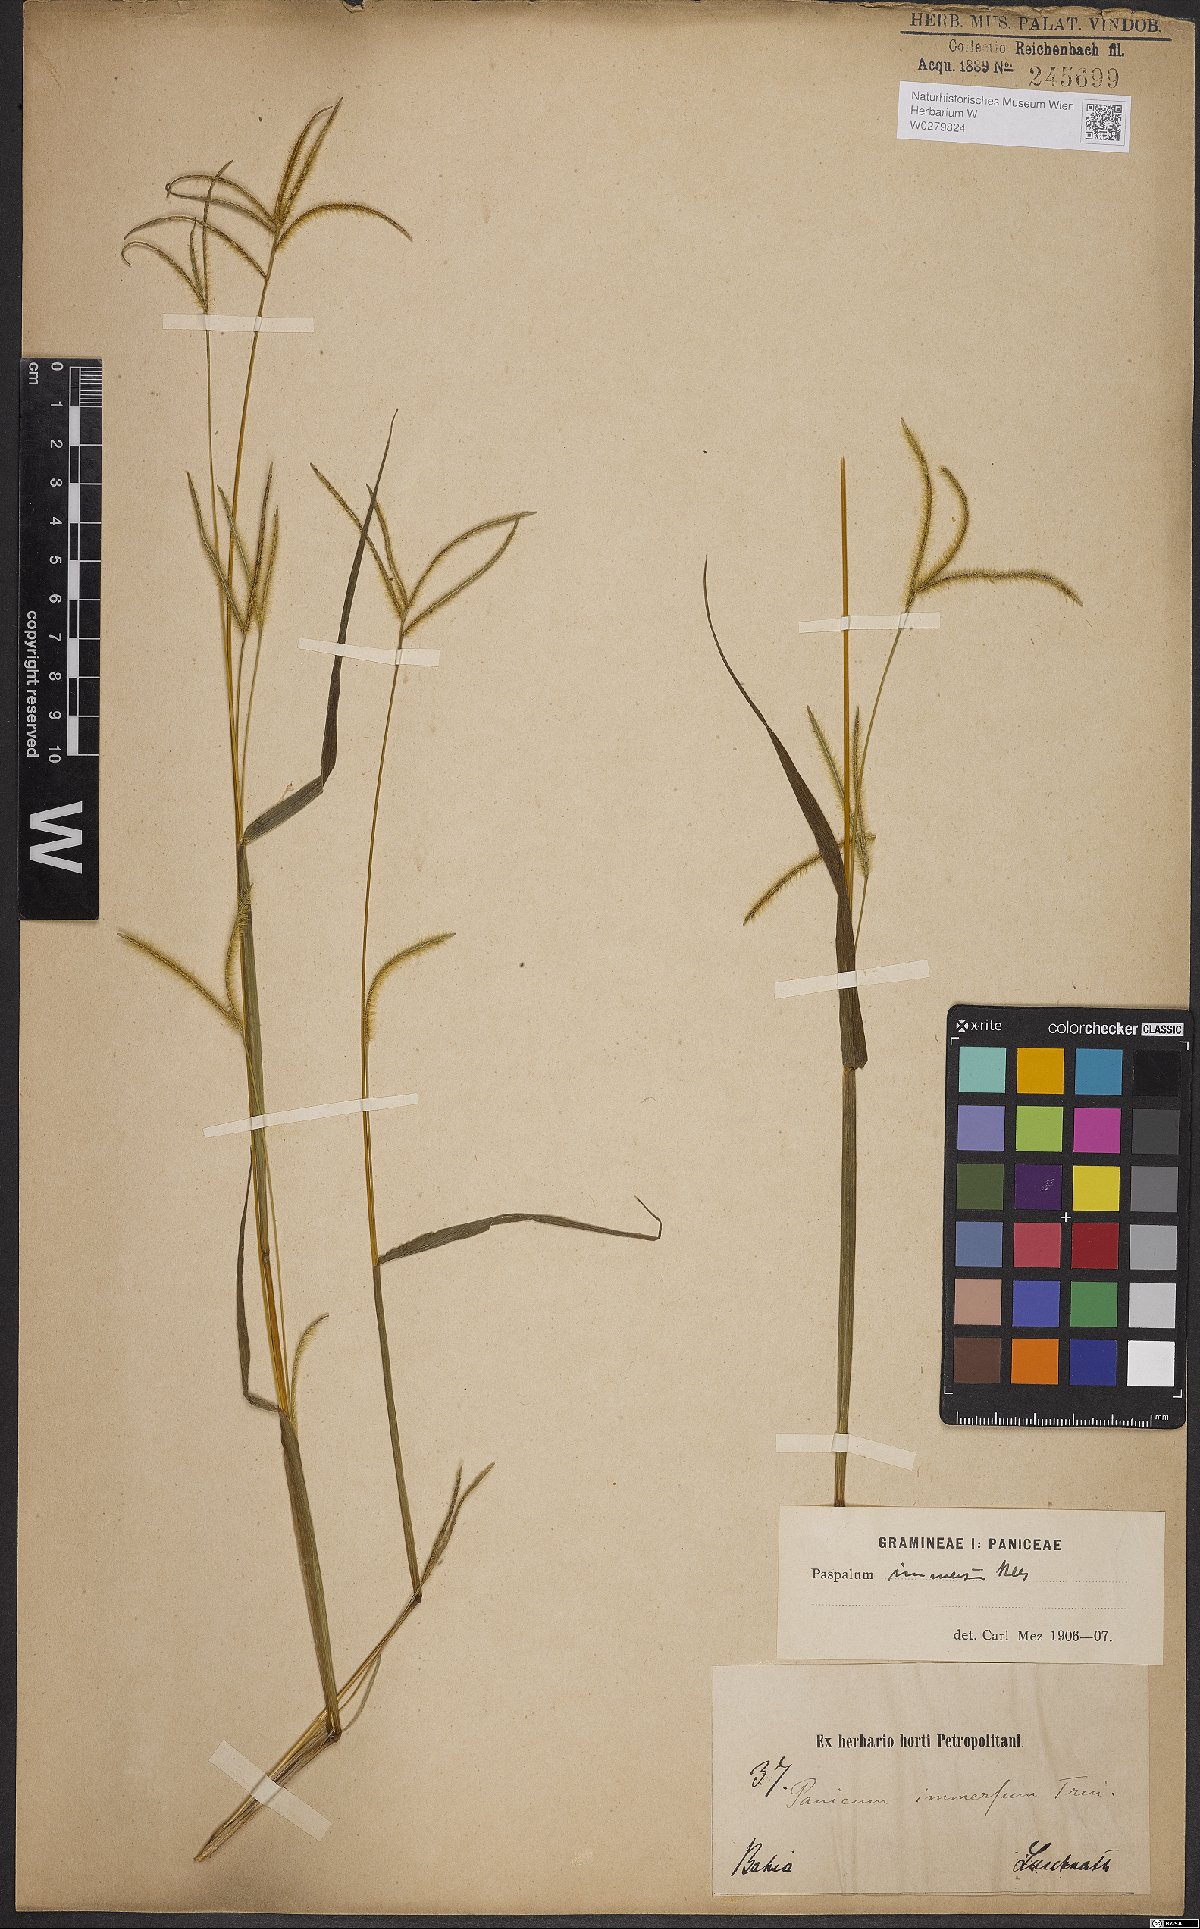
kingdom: Plantae
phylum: Tracheophyta
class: Liliopsida
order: Poales
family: Poaceae
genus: Axonopus
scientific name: Axonopus aureus
